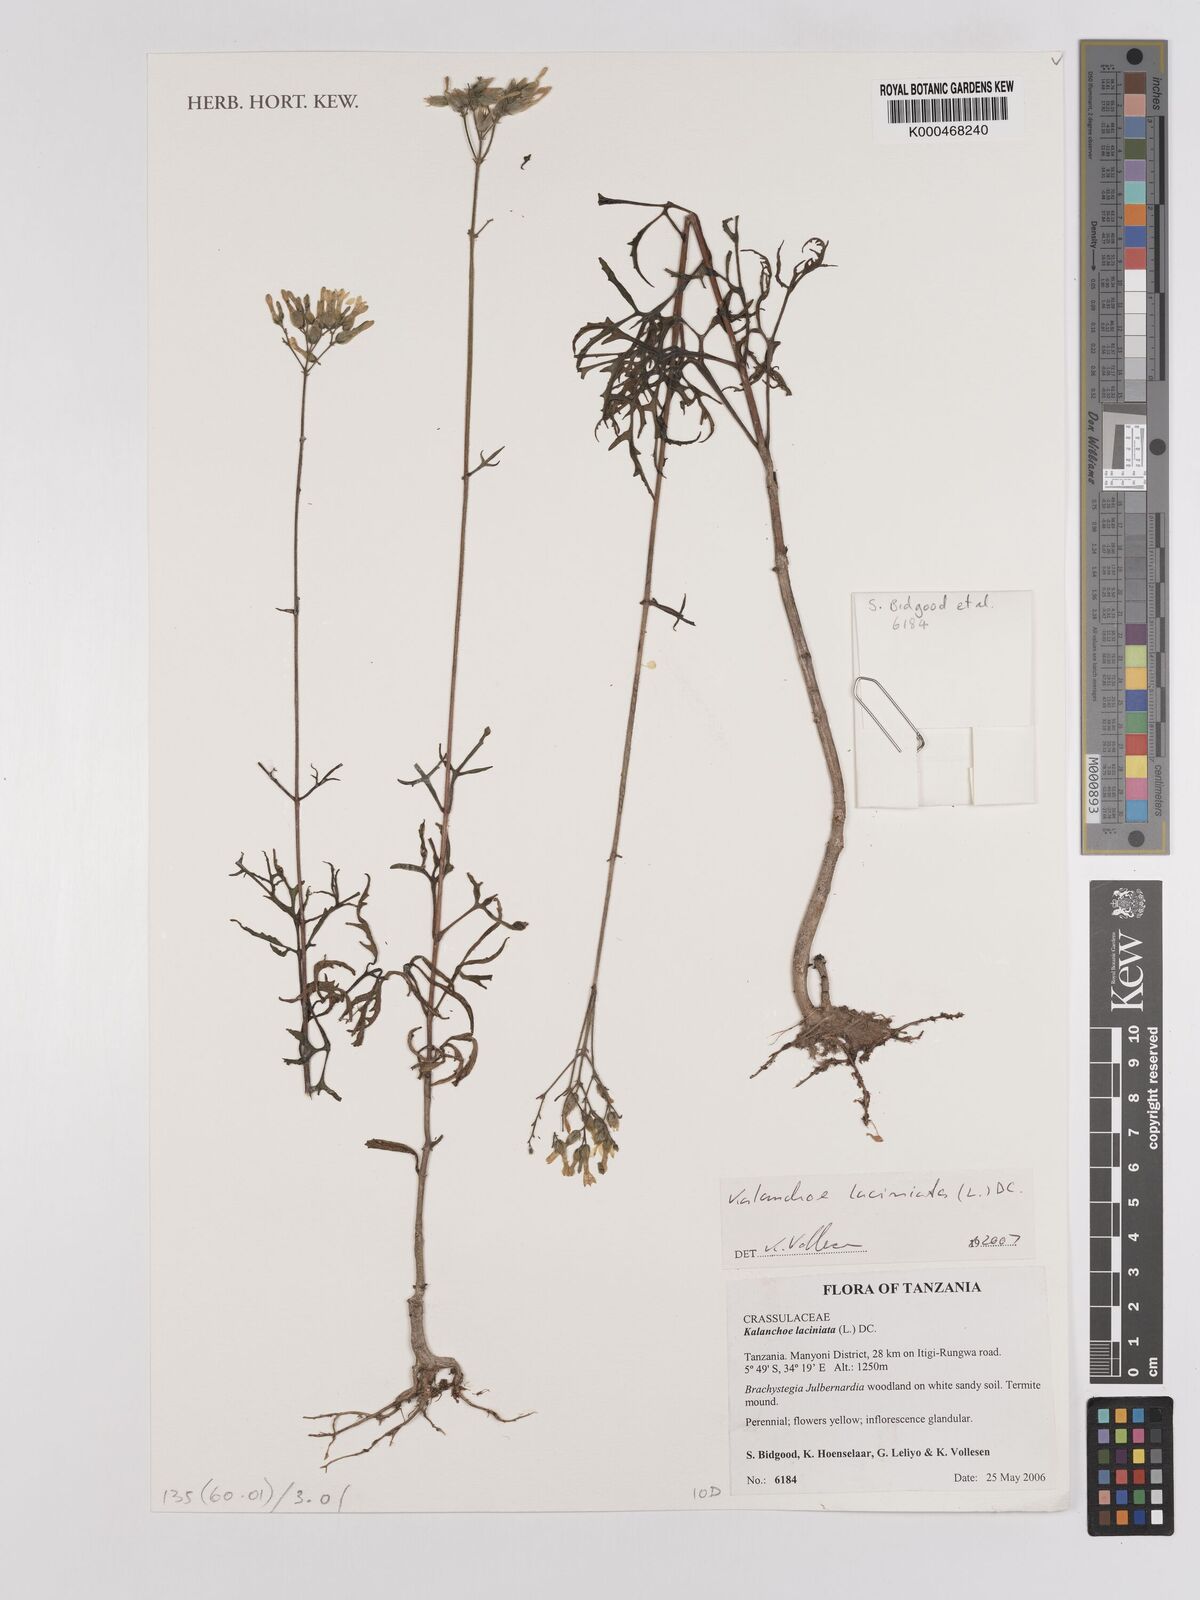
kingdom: Plantae
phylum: Tracheophyta
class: Magnoliopsida
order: Saxifragales
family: Crassulaceae
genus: Kalanchoe
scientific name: Kalanchoe laciniata
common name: Christmastree plant
